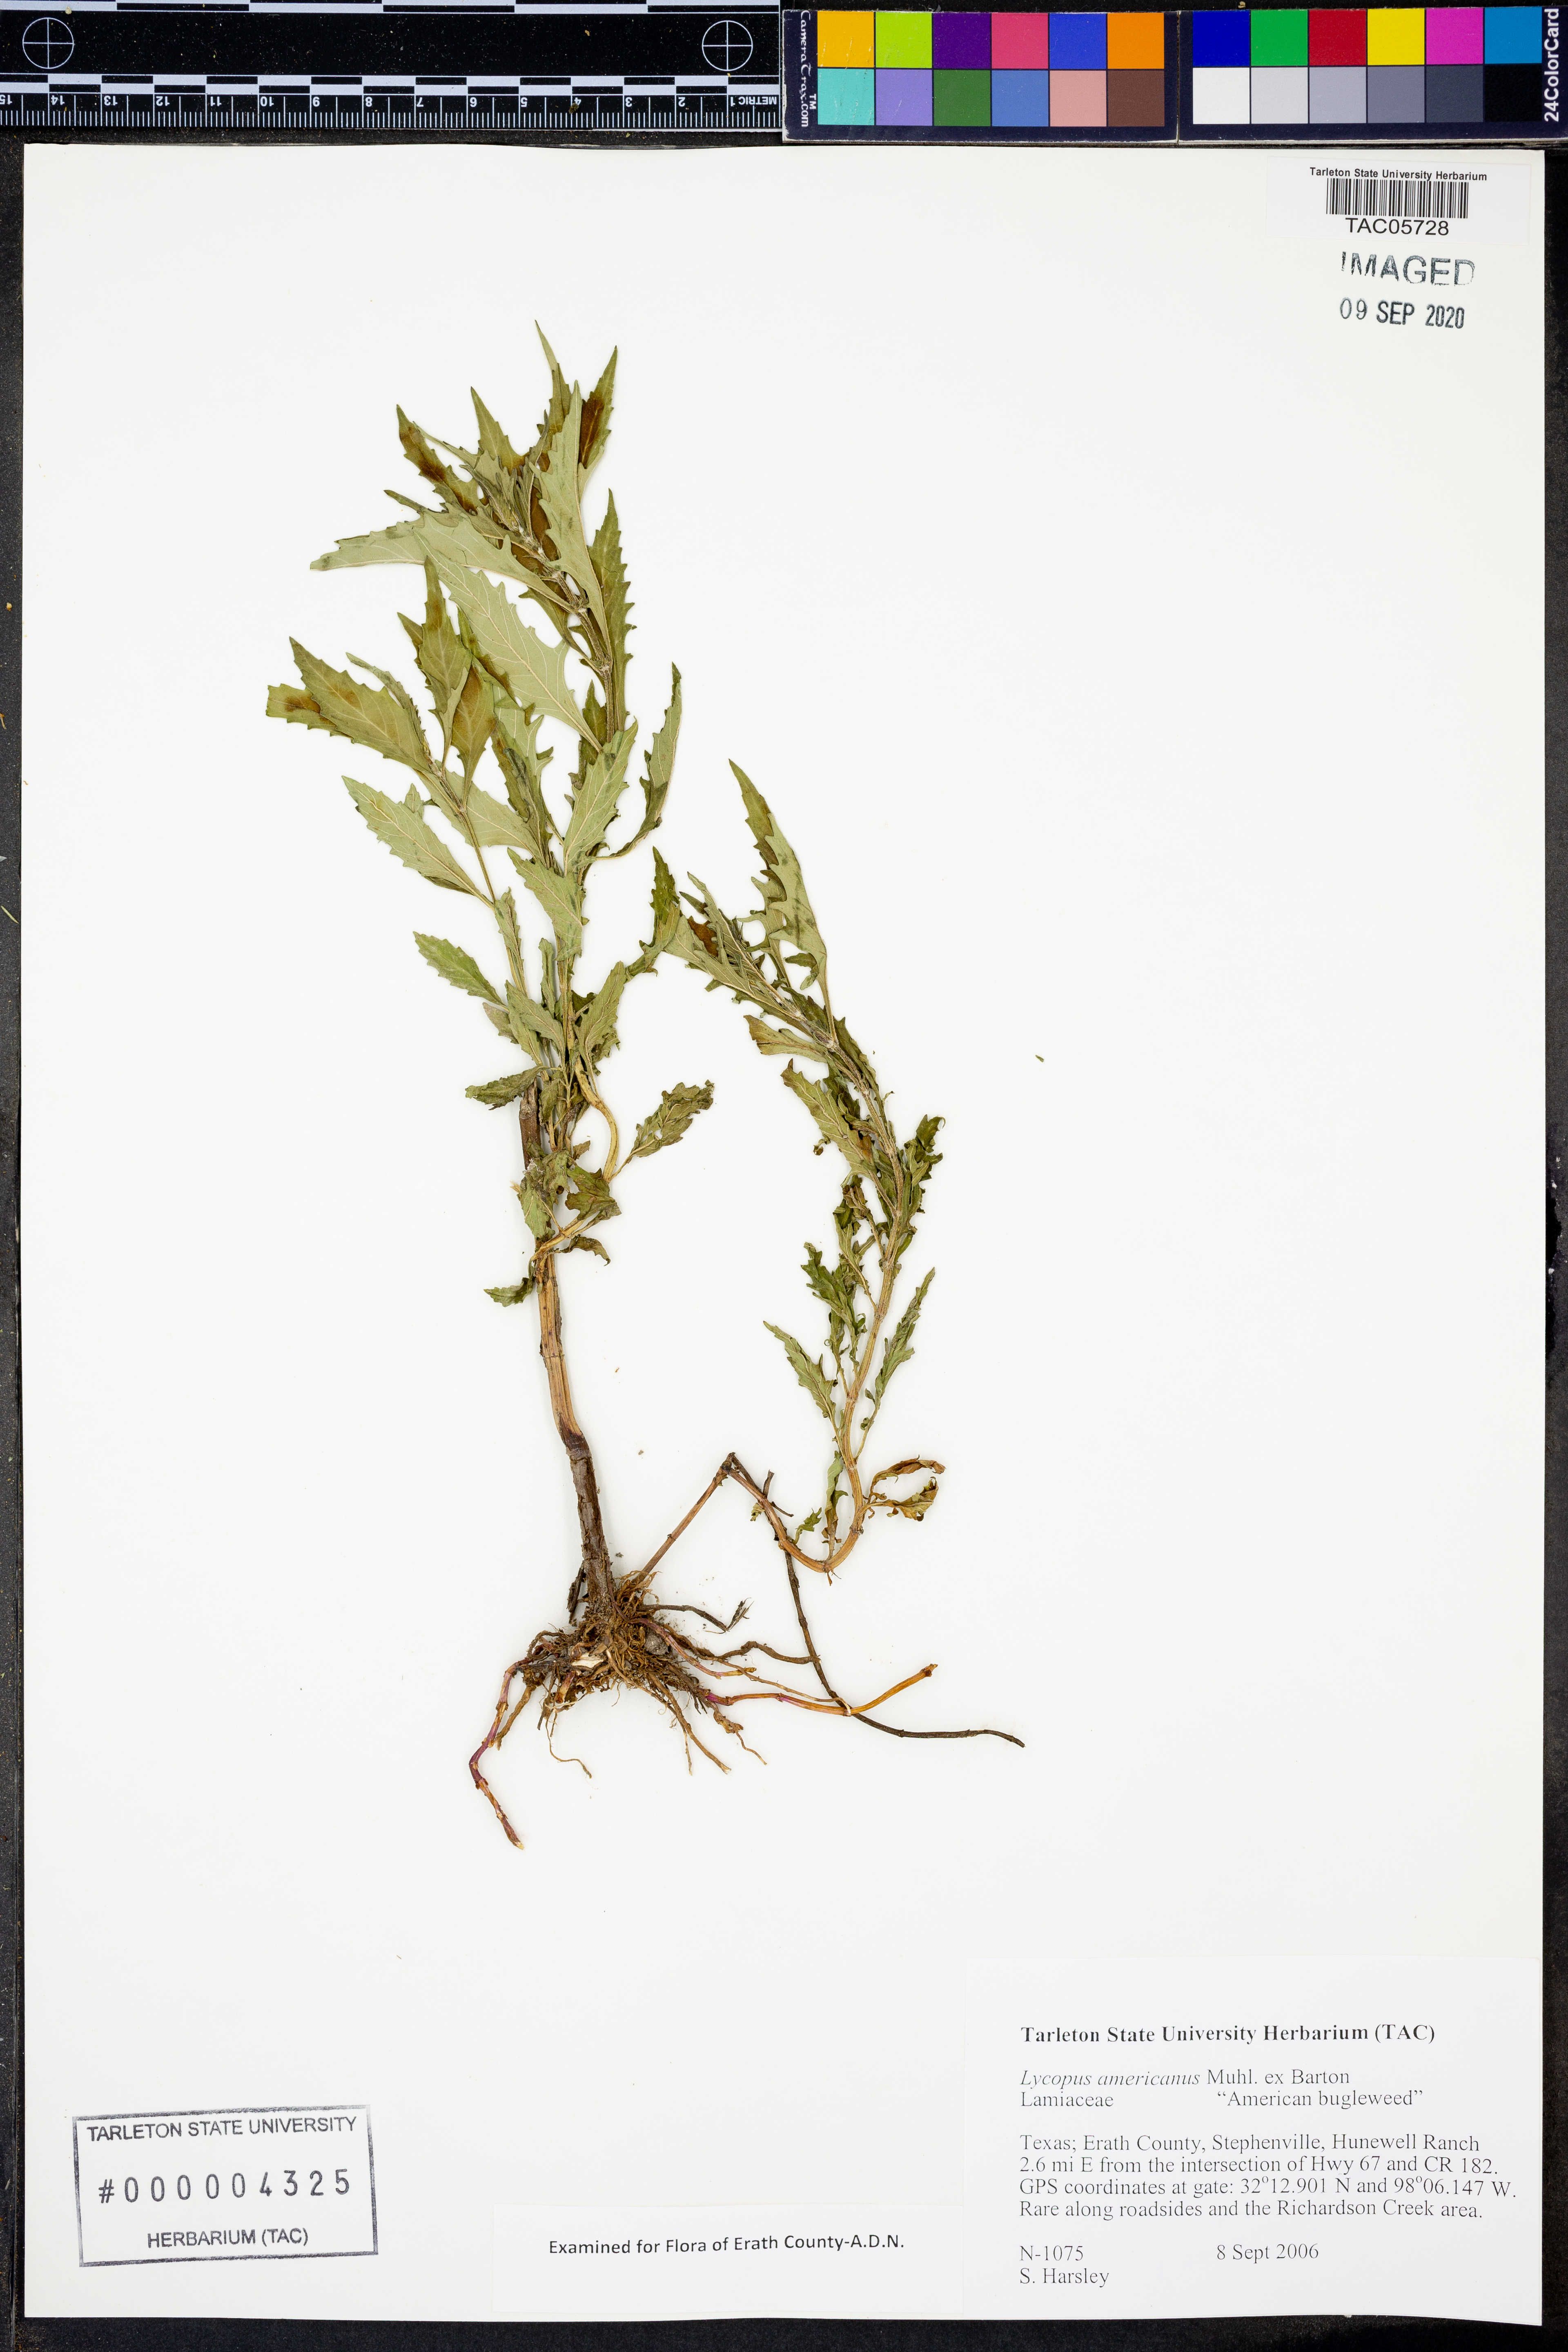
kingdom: Plantae
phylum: Tracheophyta
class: Magnoliopsida
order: Lamiales
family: Lamiaceae
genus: Lycopus
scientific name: Lycopus americanus
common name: American bugleweed
